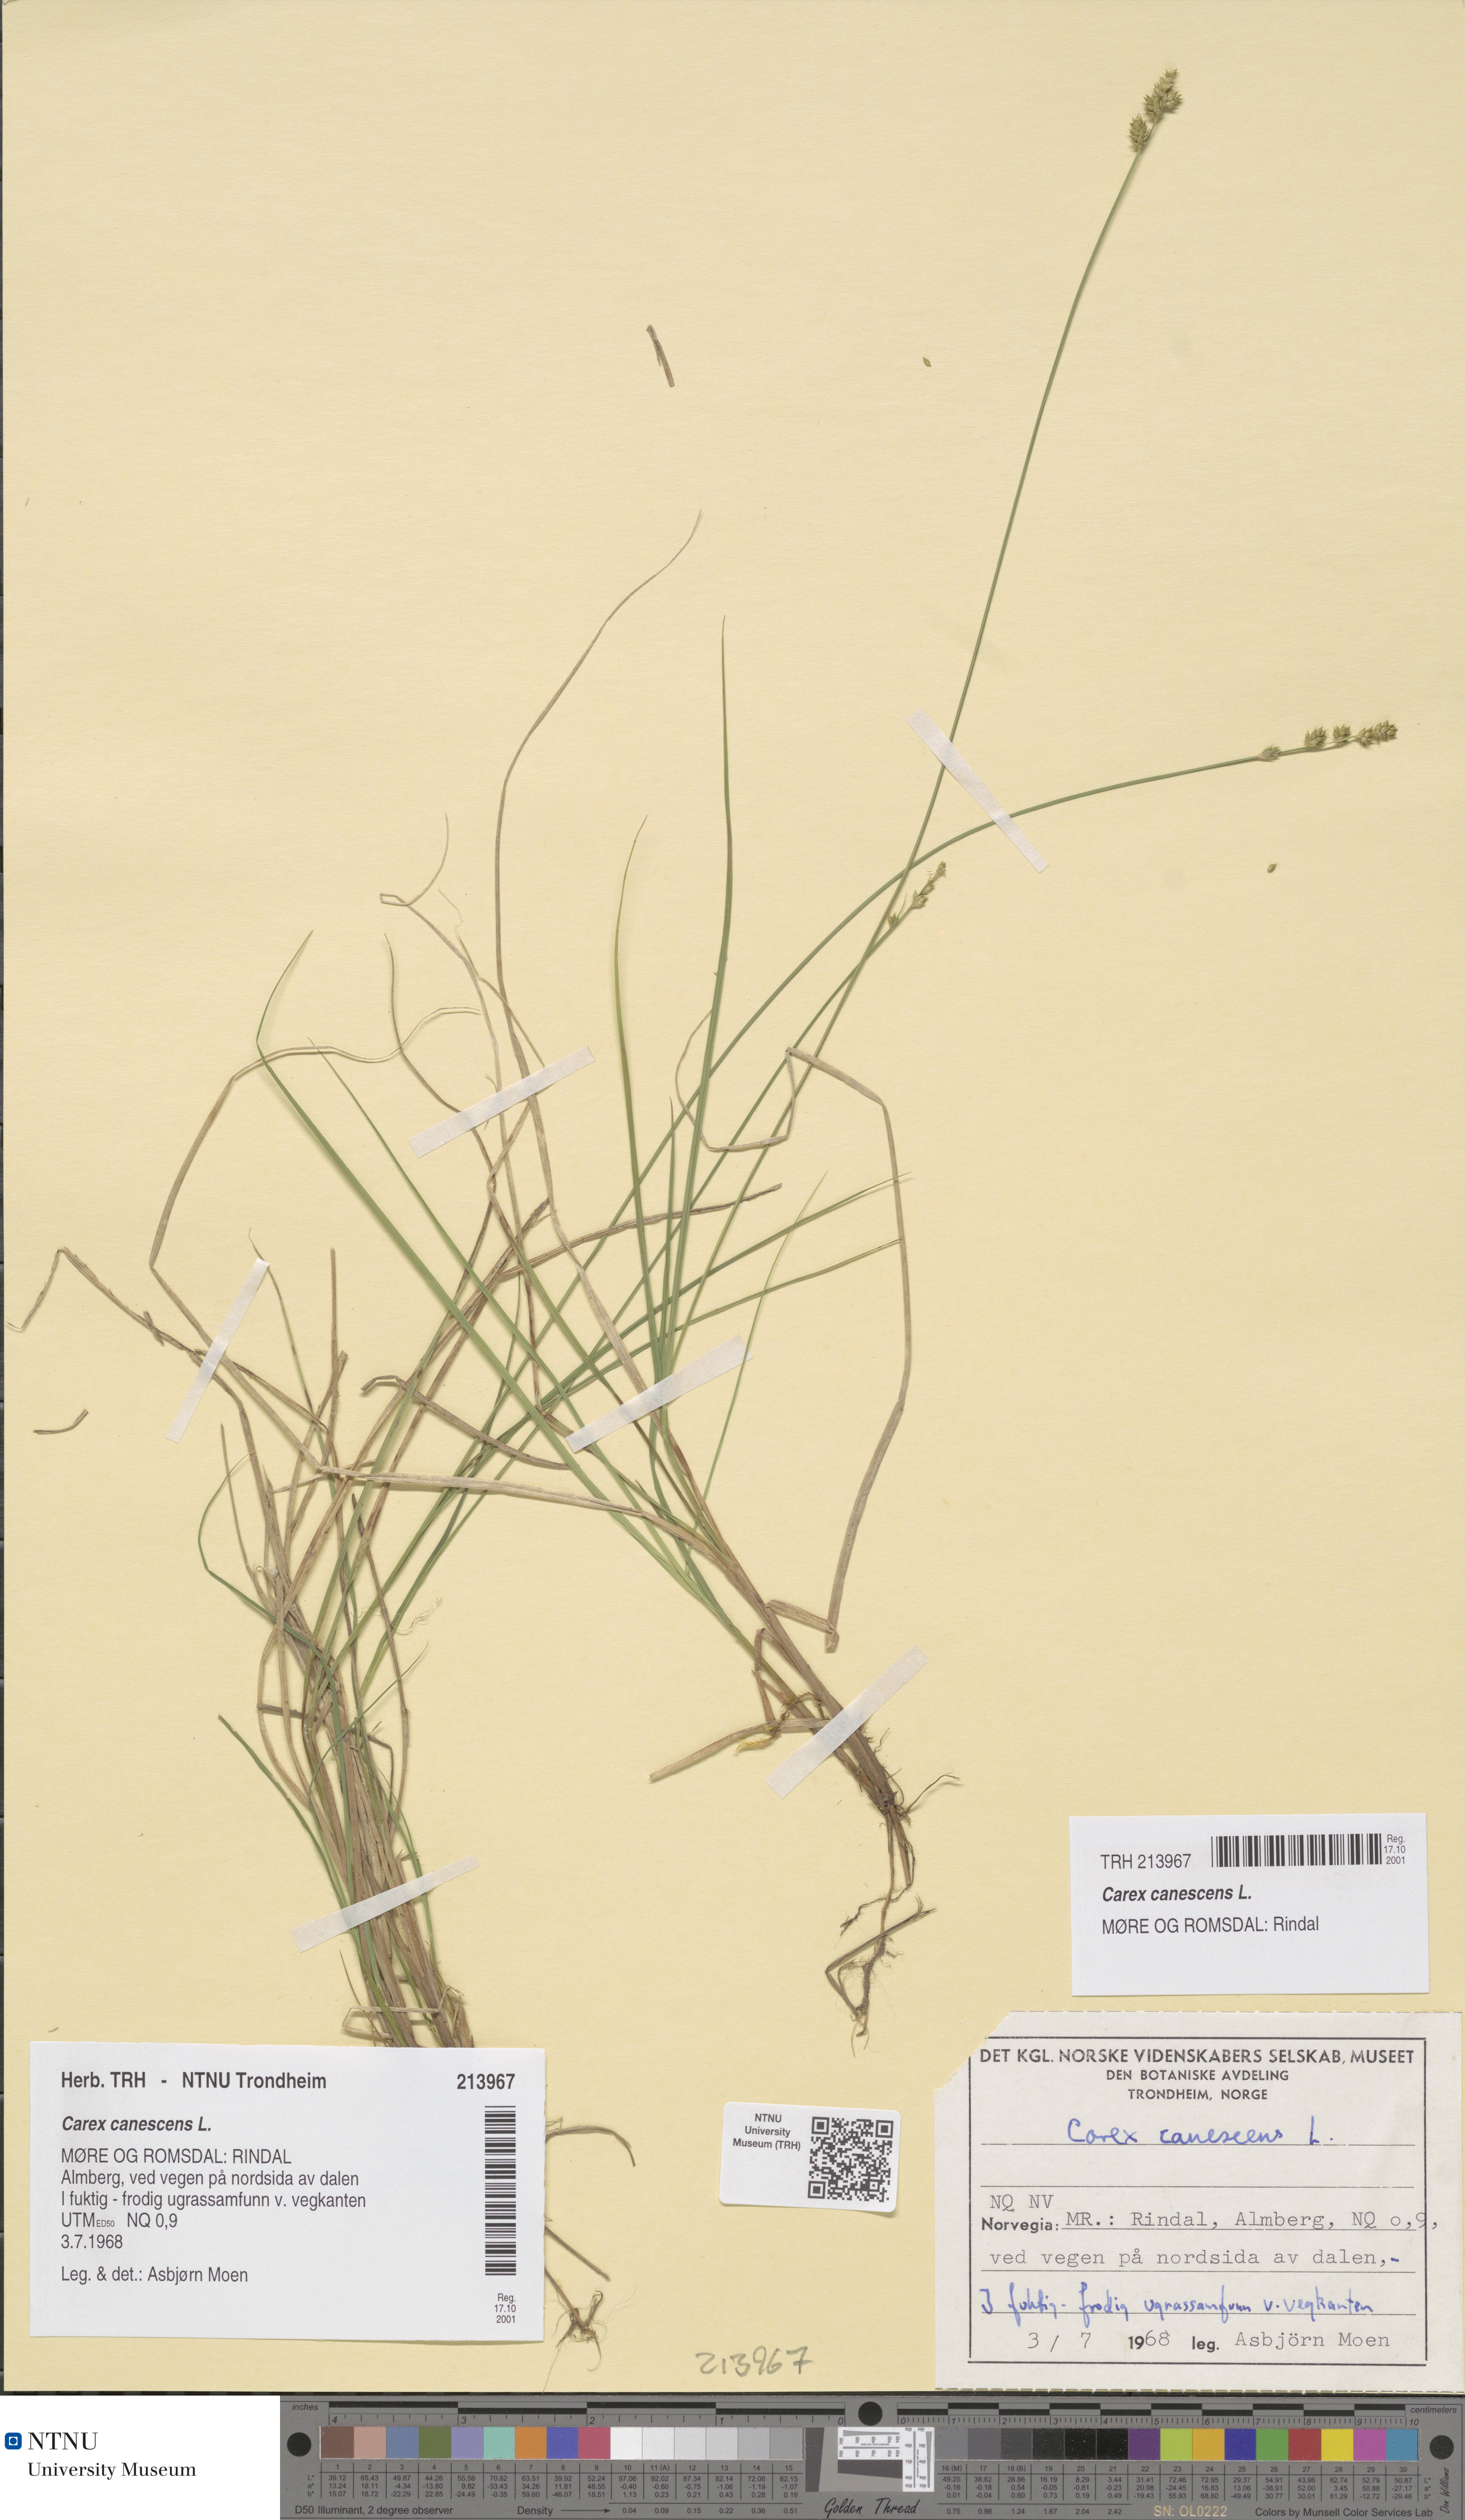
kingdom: Plantae
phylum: Tracheophyta
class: Liliopsida
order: Poales
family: Cyperaceae
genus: Carex
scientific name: Carex canescens
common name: White sedge
